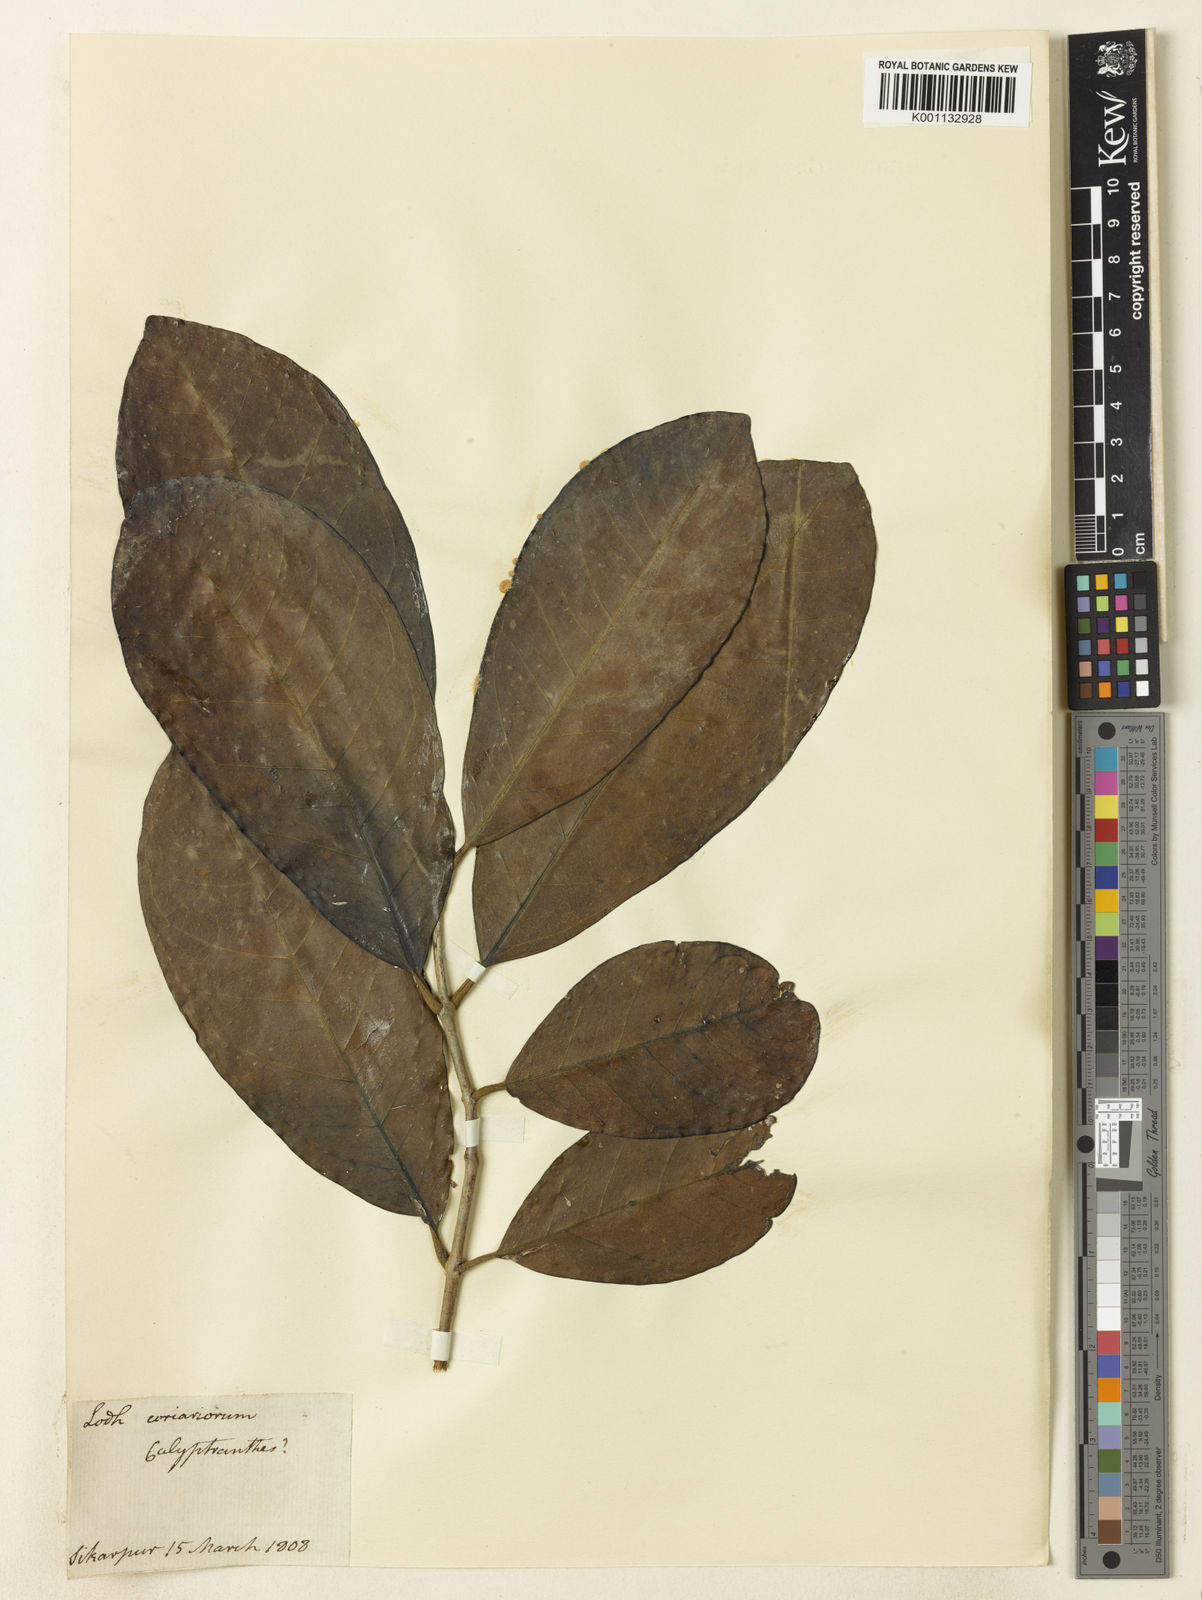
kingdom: Plantae
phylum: Tracheophyta
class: Magnoliopsida
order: Myrtales
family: Myrtaceae
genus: Calyptranthes
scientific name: Calyptranthes
